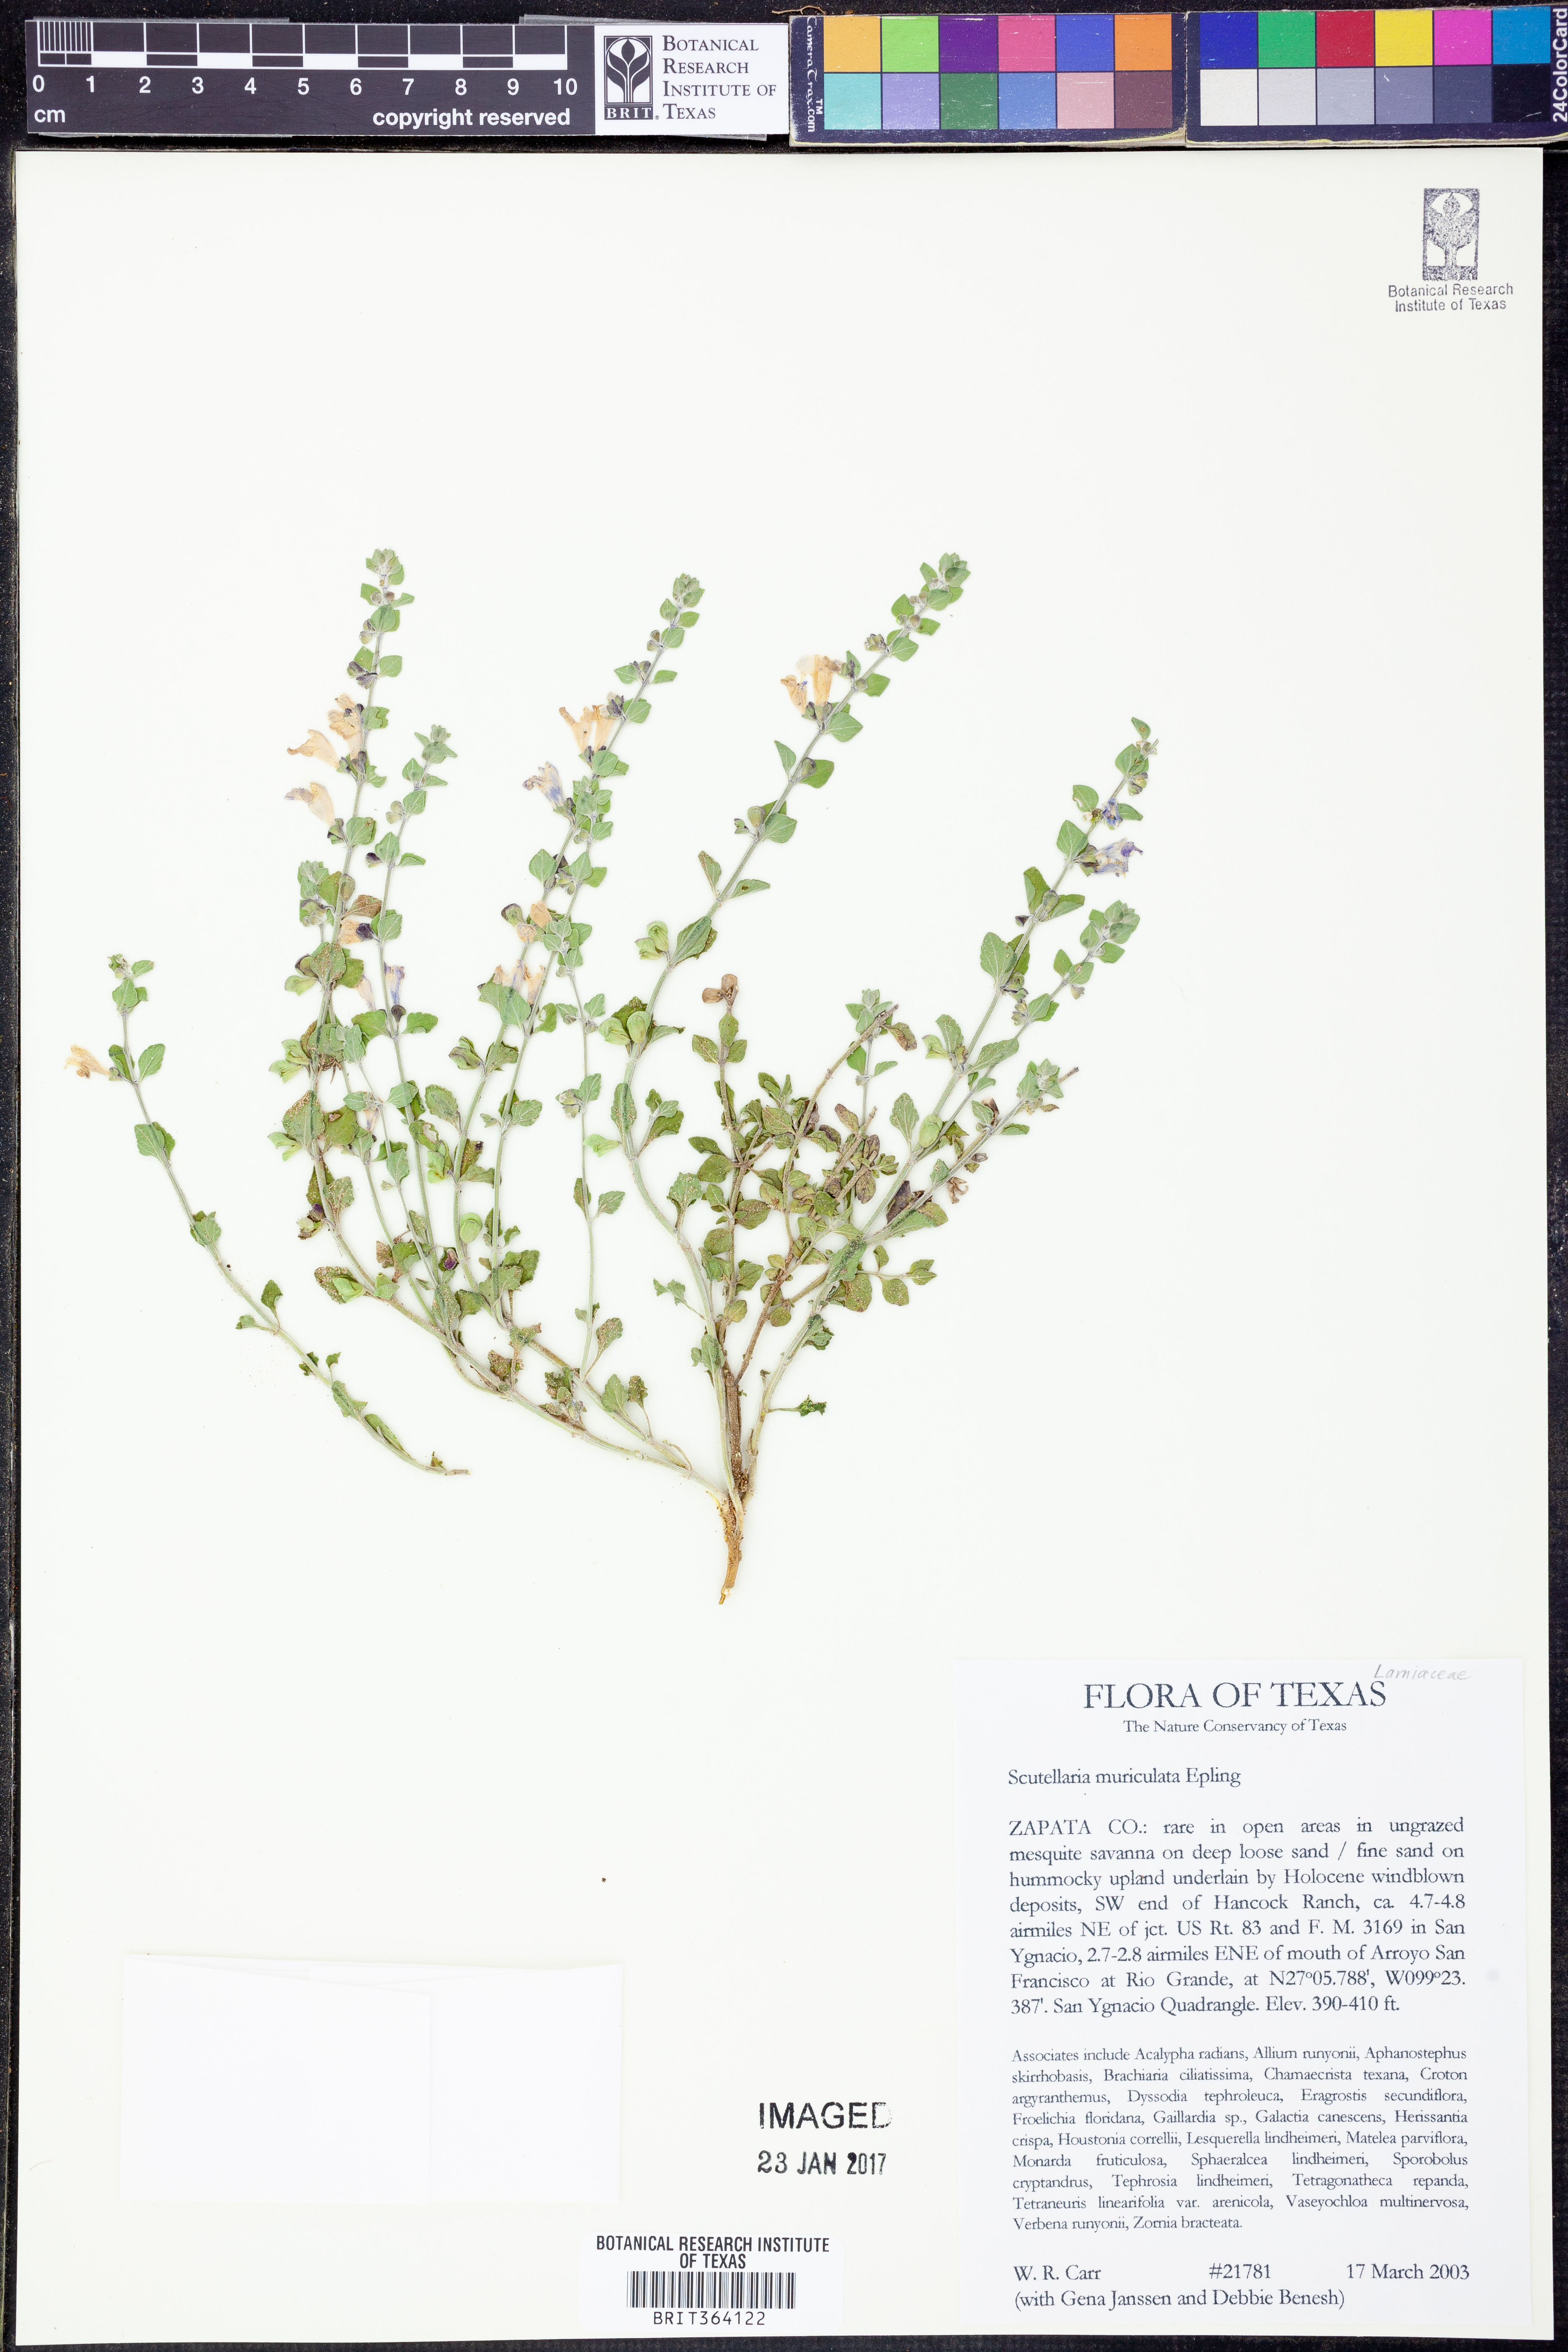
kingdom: Plantae
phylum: Tracheophyta
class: Magnoliopsida
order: Lamiales
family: Lamiaceae
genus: Scutellaria
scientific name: Scutellaria muriculata
